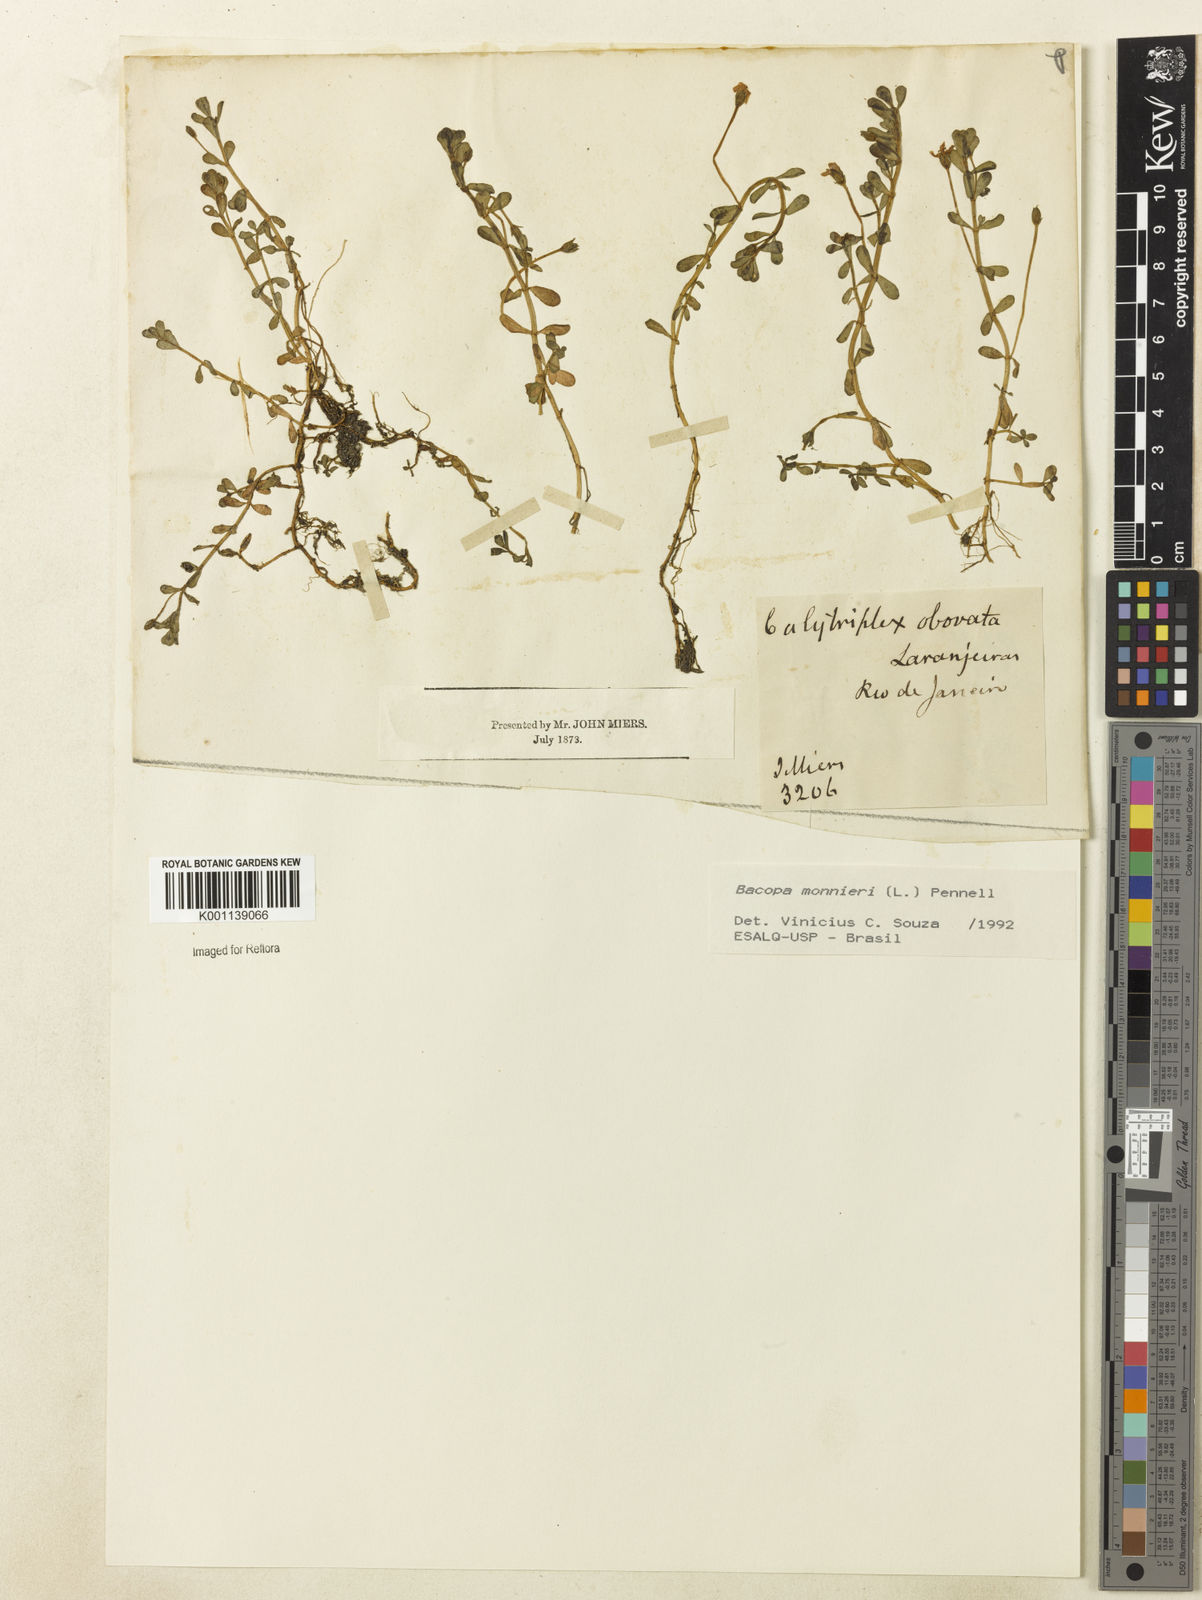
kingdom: Plantae
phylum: Tracheophyta
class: Magnoliopsida
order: Lamiales
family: Plantaginaceae
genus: Bacopa
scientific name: Bacopa
